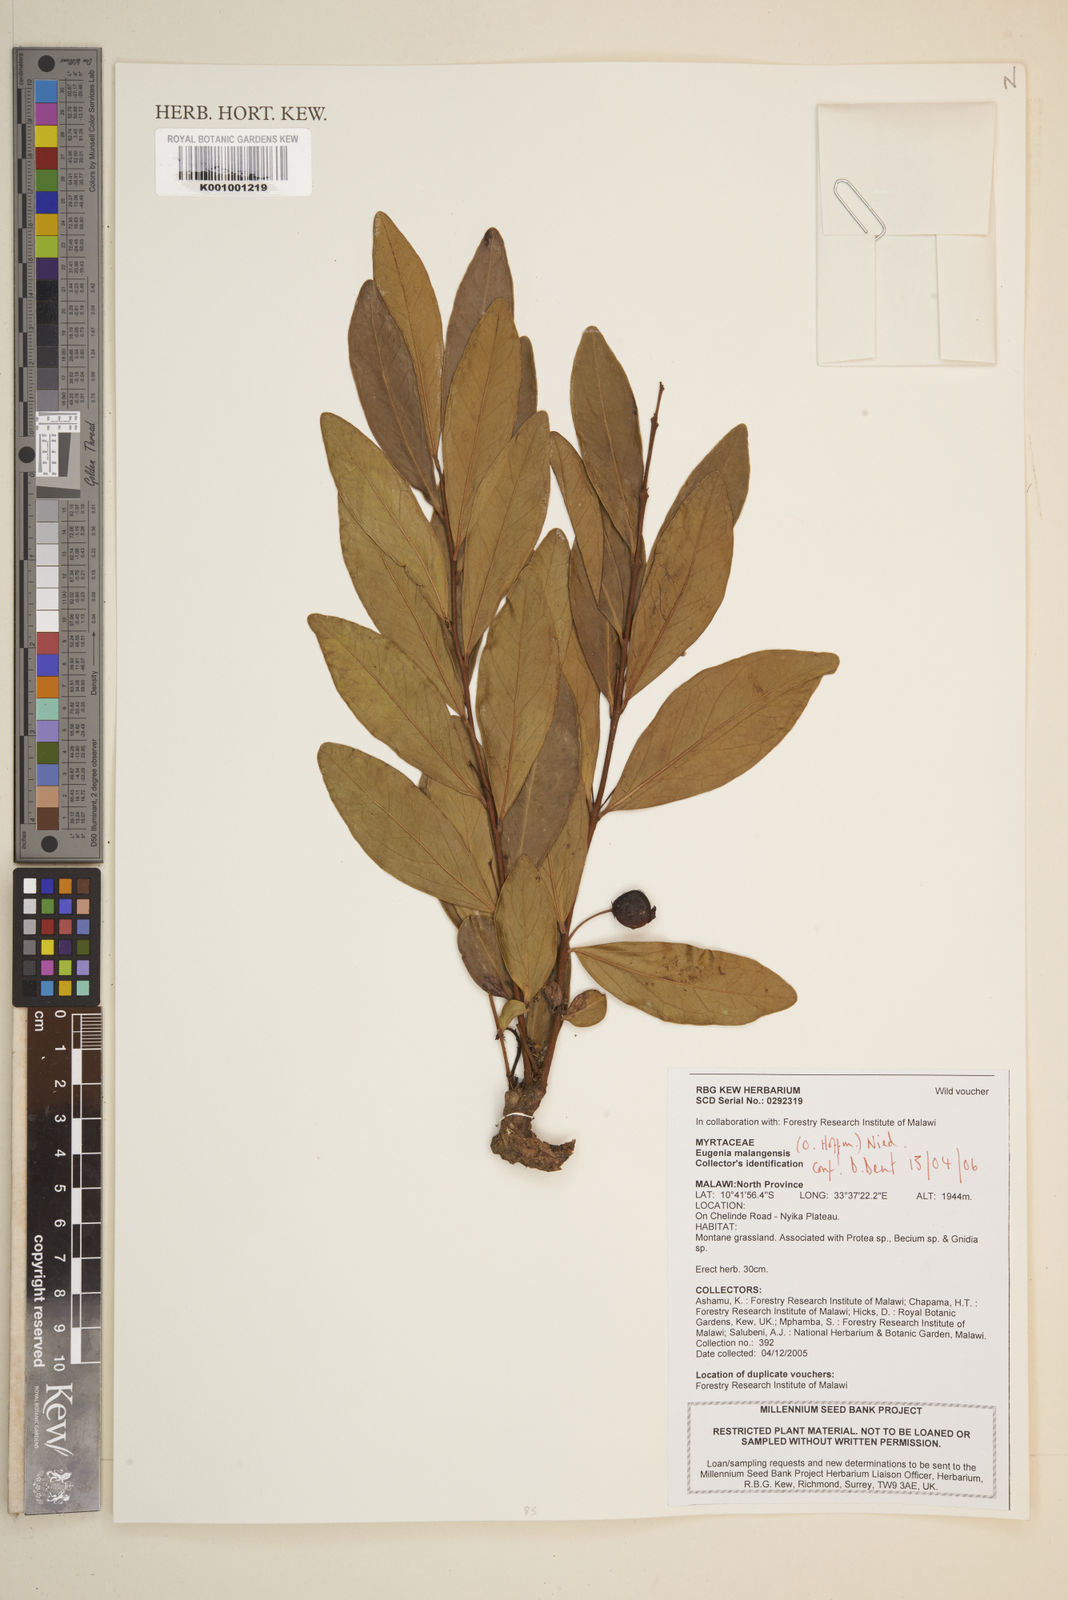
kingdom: Plantae
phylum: Tracheophyta
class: Magnoliopsida
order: Myrtales
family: Myrtaceae
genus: Eugenia
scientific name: Eugenia malangensis
